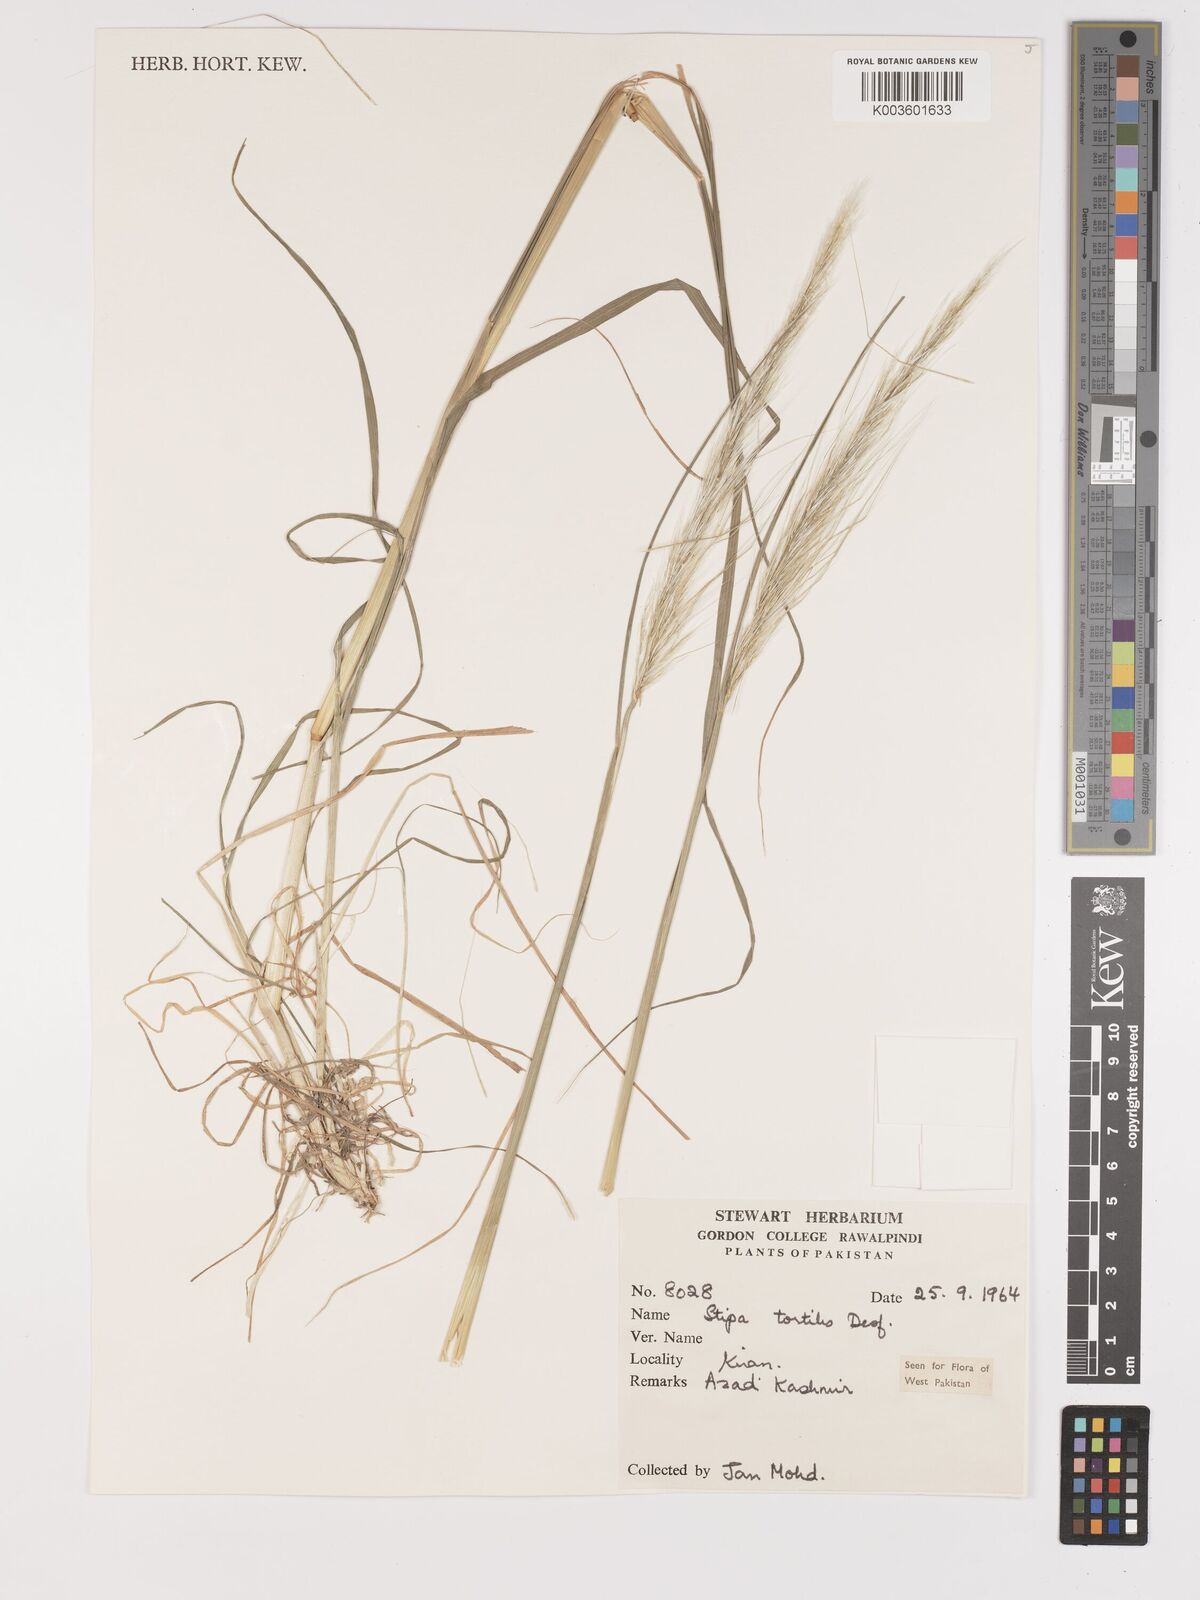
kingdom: Plantae
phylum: Tracheophyta
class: Liliopsida
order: Poales
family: Poaceae
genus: Stipellula
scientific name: Stipellula capensis
